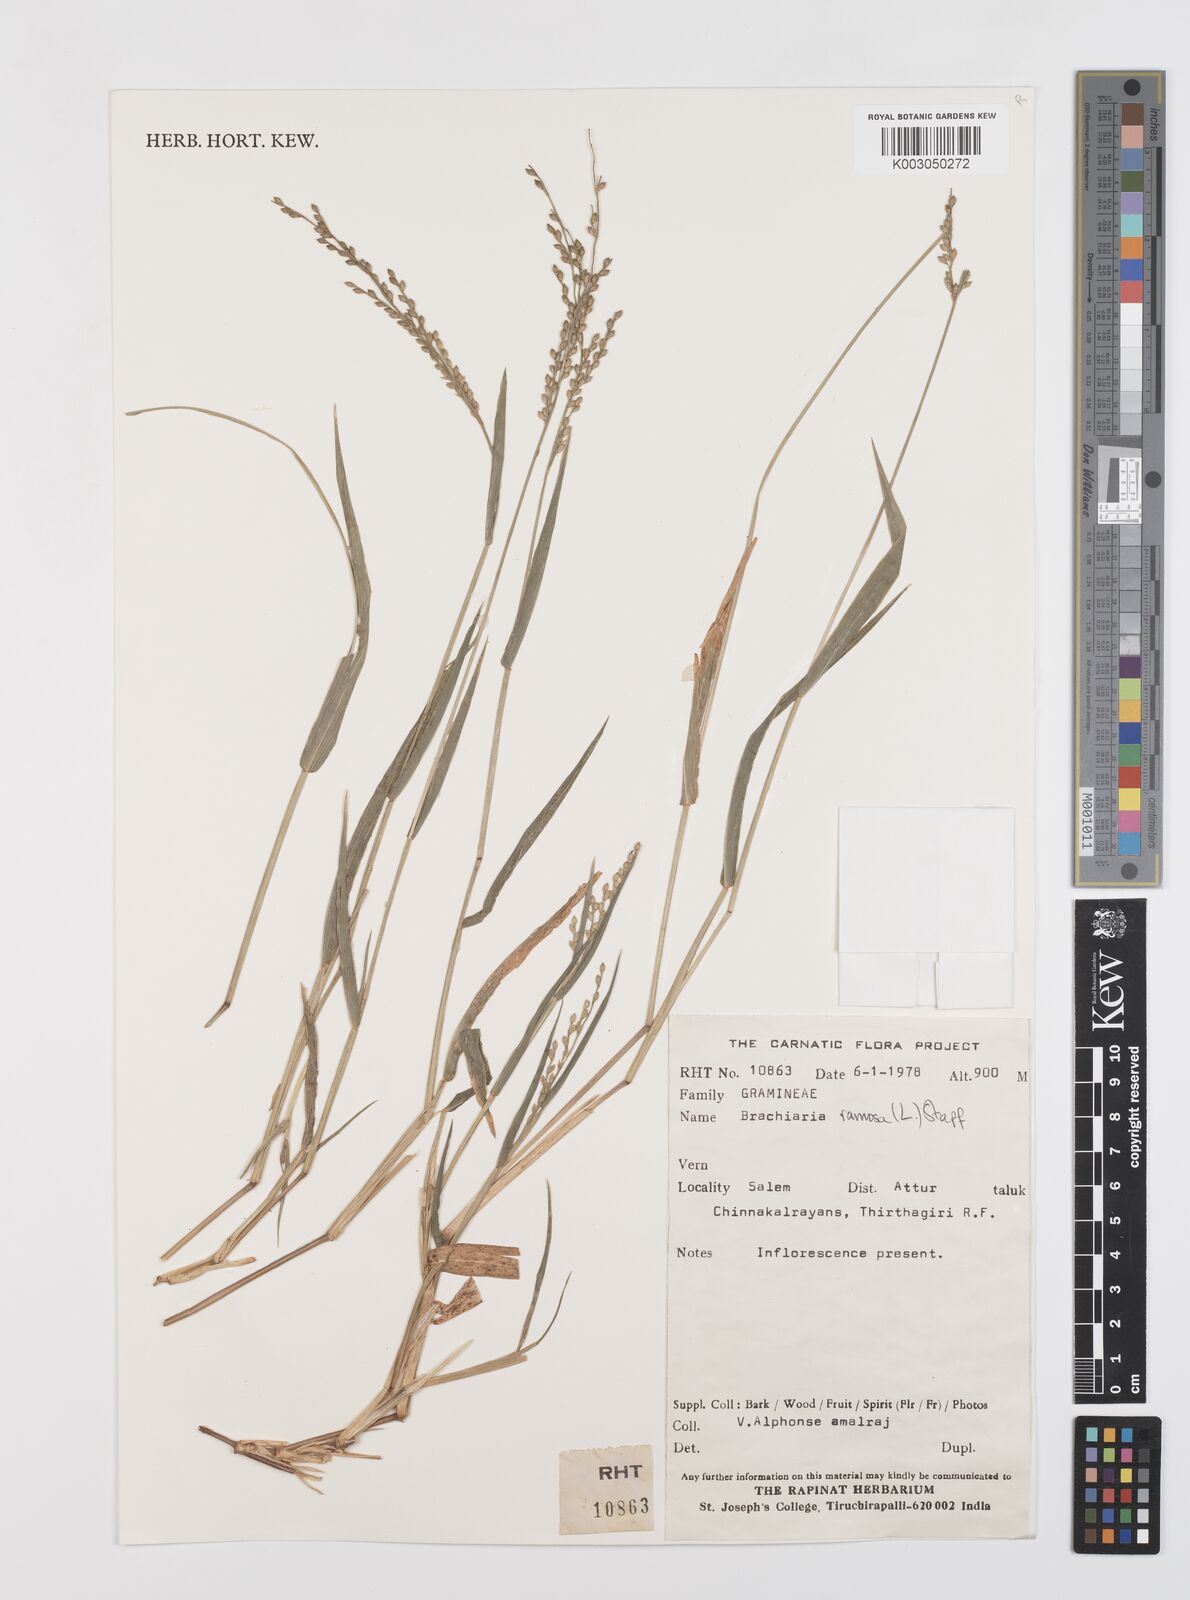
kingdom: Plantae
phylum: Tracheophyta
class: Liliopsida
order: Poales
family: Poaceae
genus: Urochloa
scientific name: Urochloa ramosa
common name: Browntop millet
